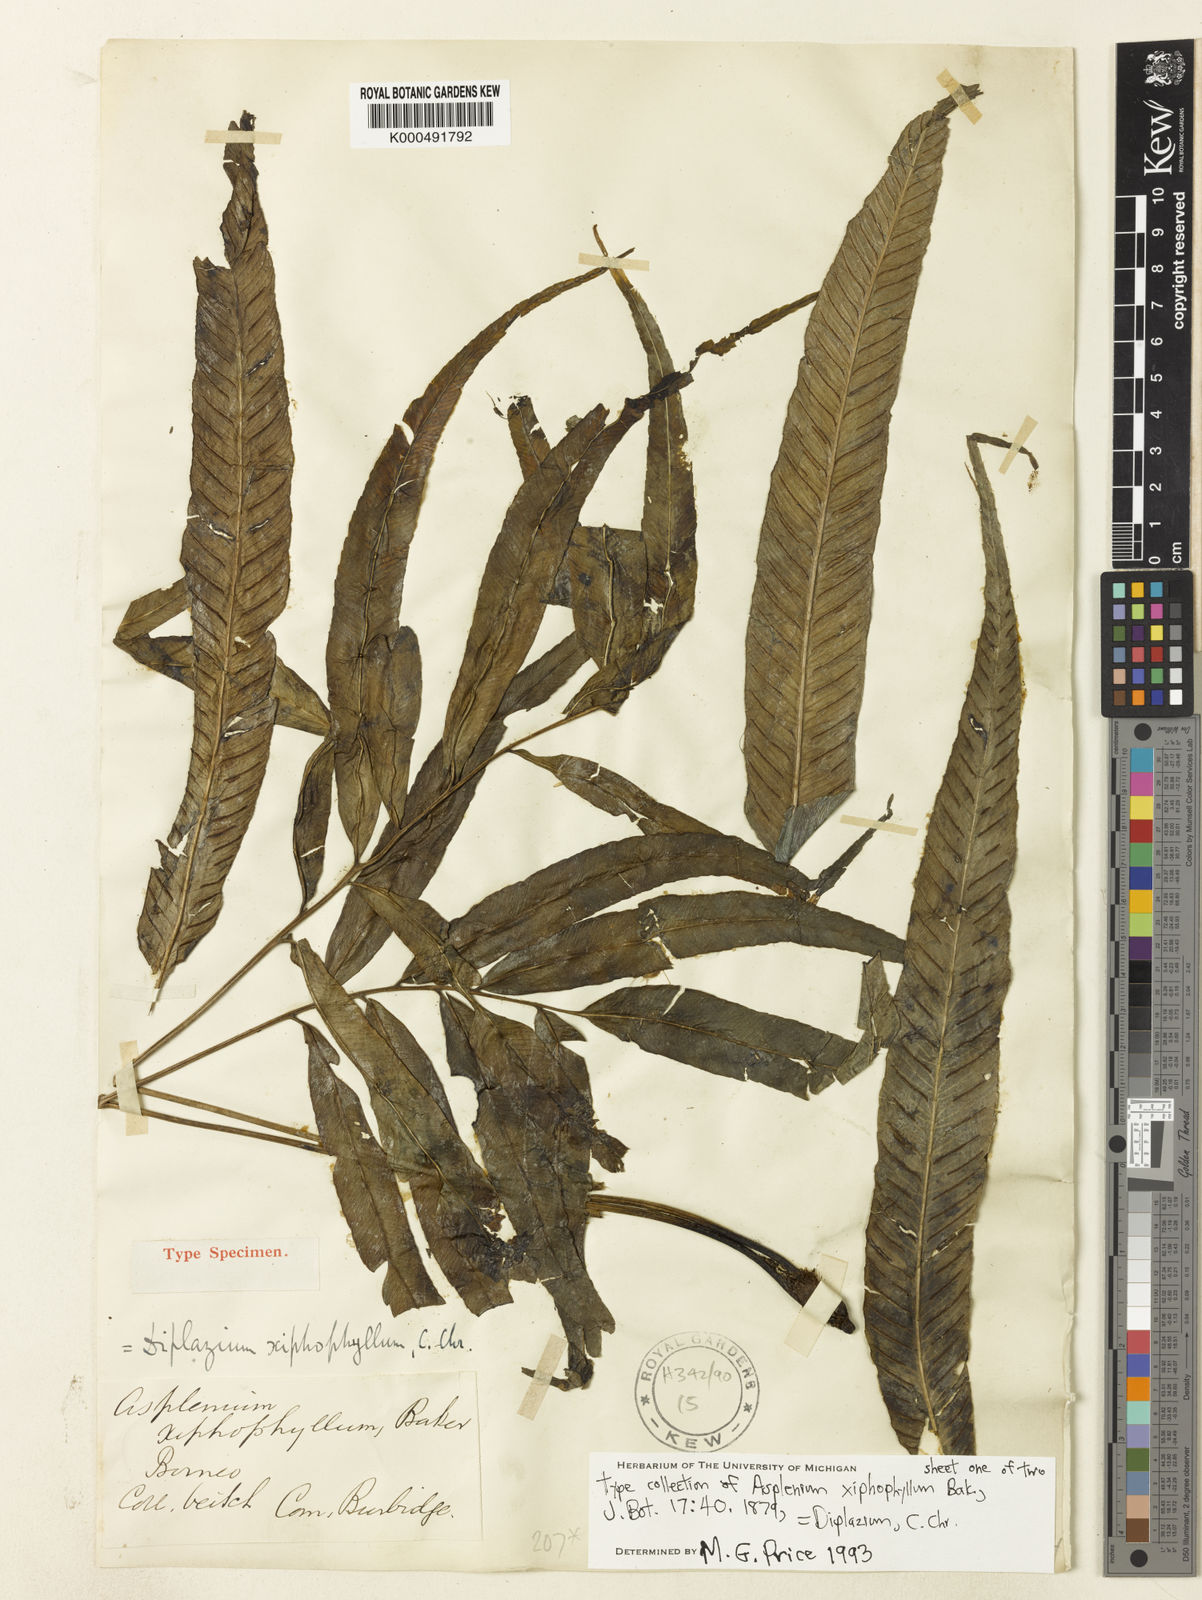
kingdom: Plantae
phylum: Tracheophyta
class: Polypodiopsida
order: Polypodiales
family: Athyriaceae
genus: Diplazium
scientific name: Diplazium xiphophyllum
